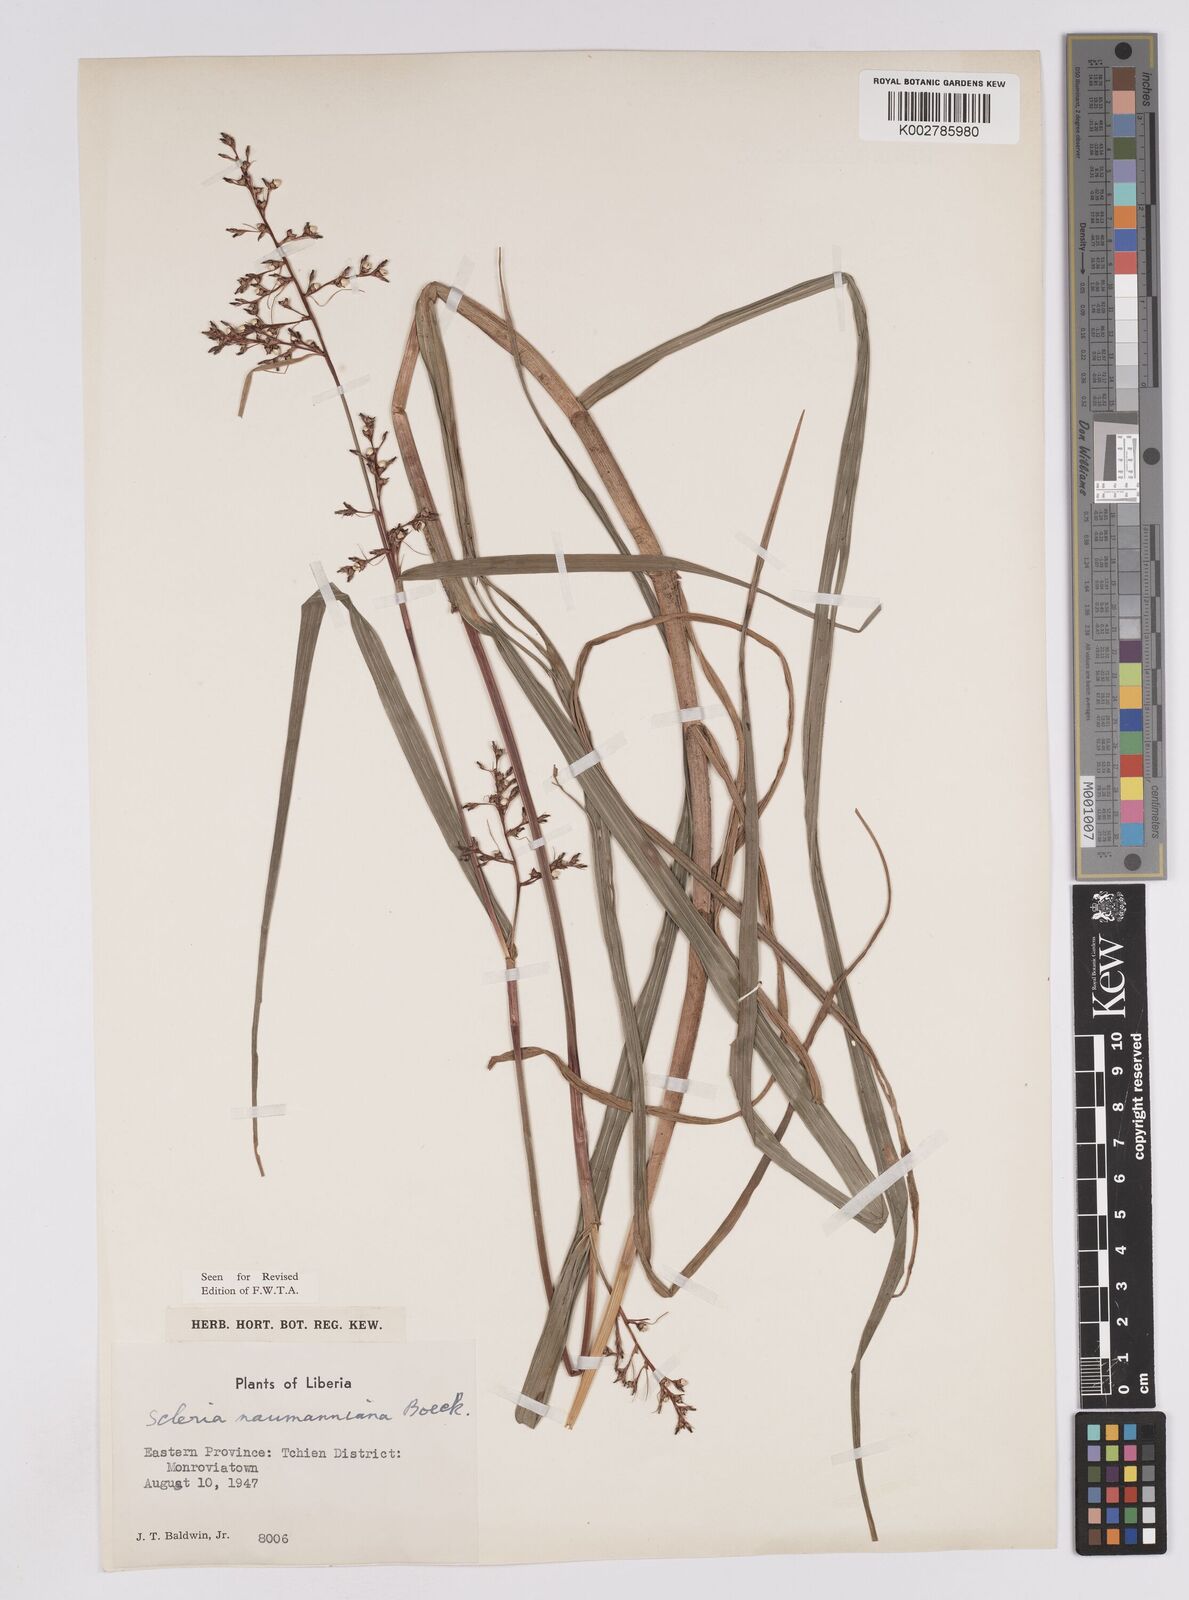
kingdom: Plantae
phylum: Tracheophyta
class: Liliopsida
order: Poales
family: Cyperaceae
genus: Scleria
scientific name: Scleria naumanniana
